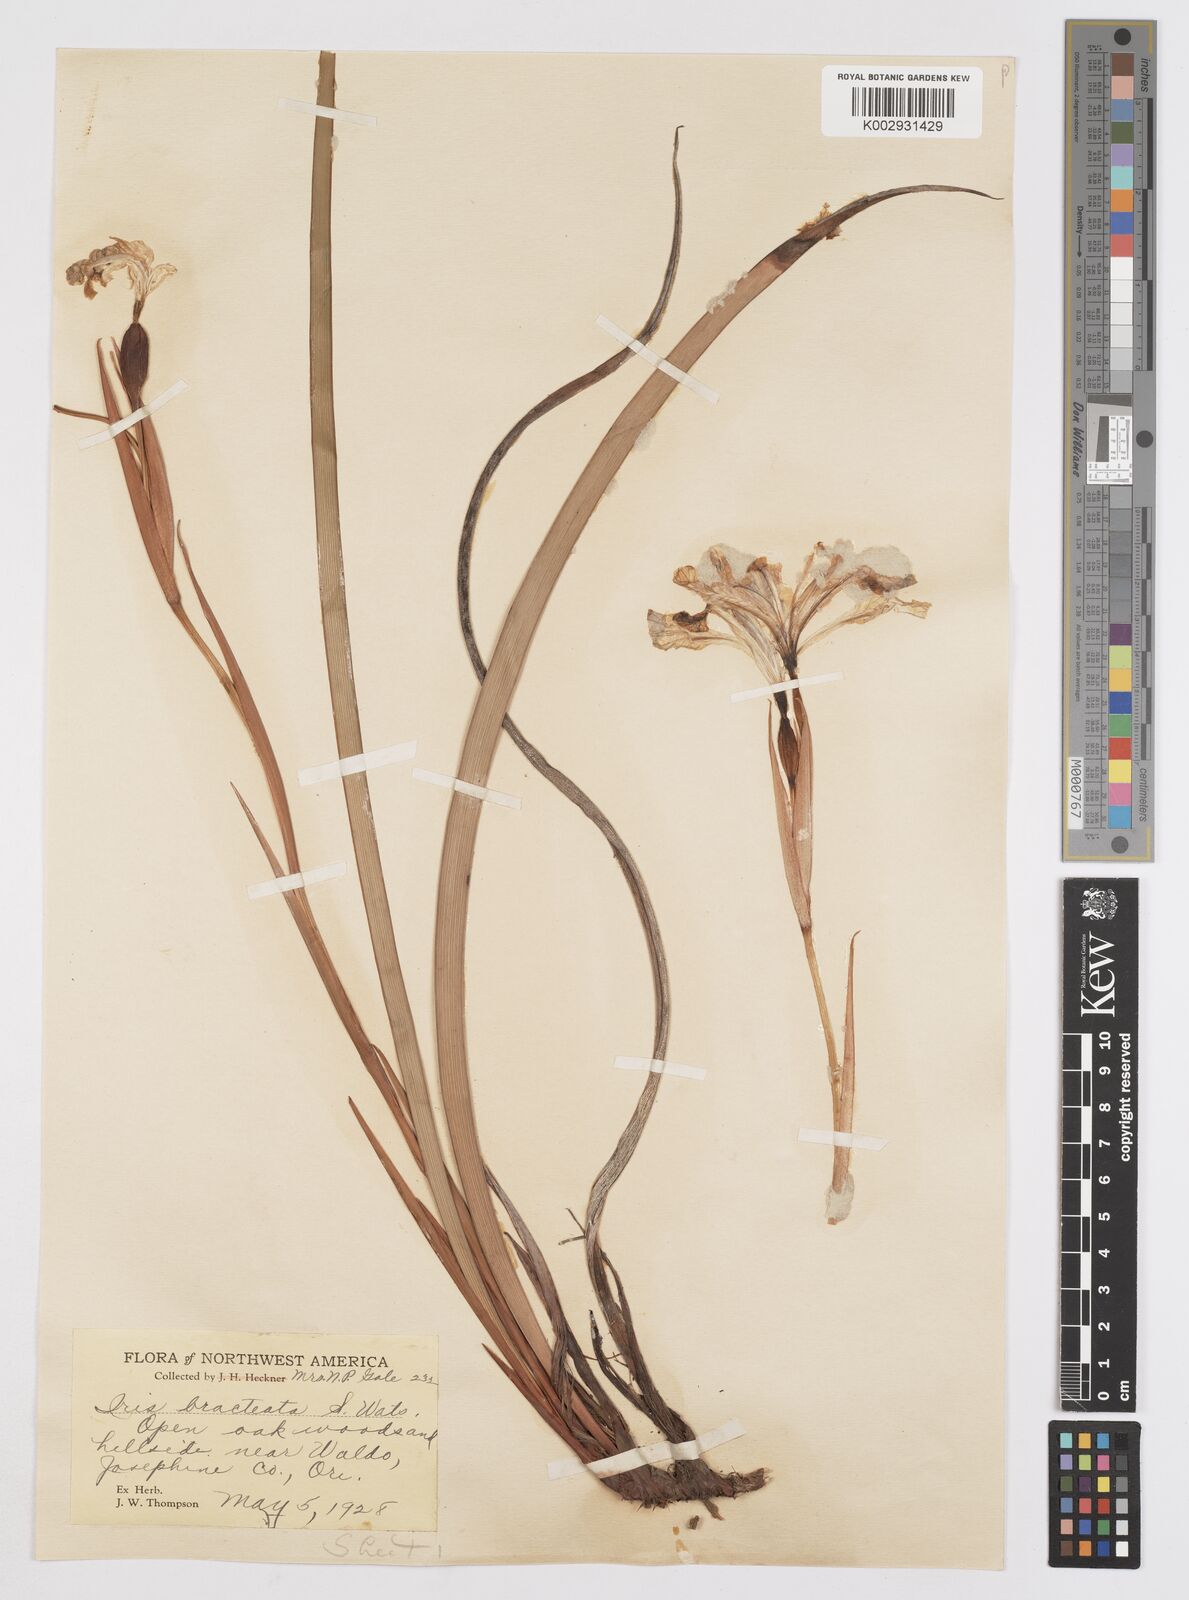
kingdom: Plantae
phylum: Tracheophyta
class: Liliopsida
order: Asparagales
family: Iridaceae
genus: Iris
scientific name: Iris bracteata
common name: Siskiyou iris
